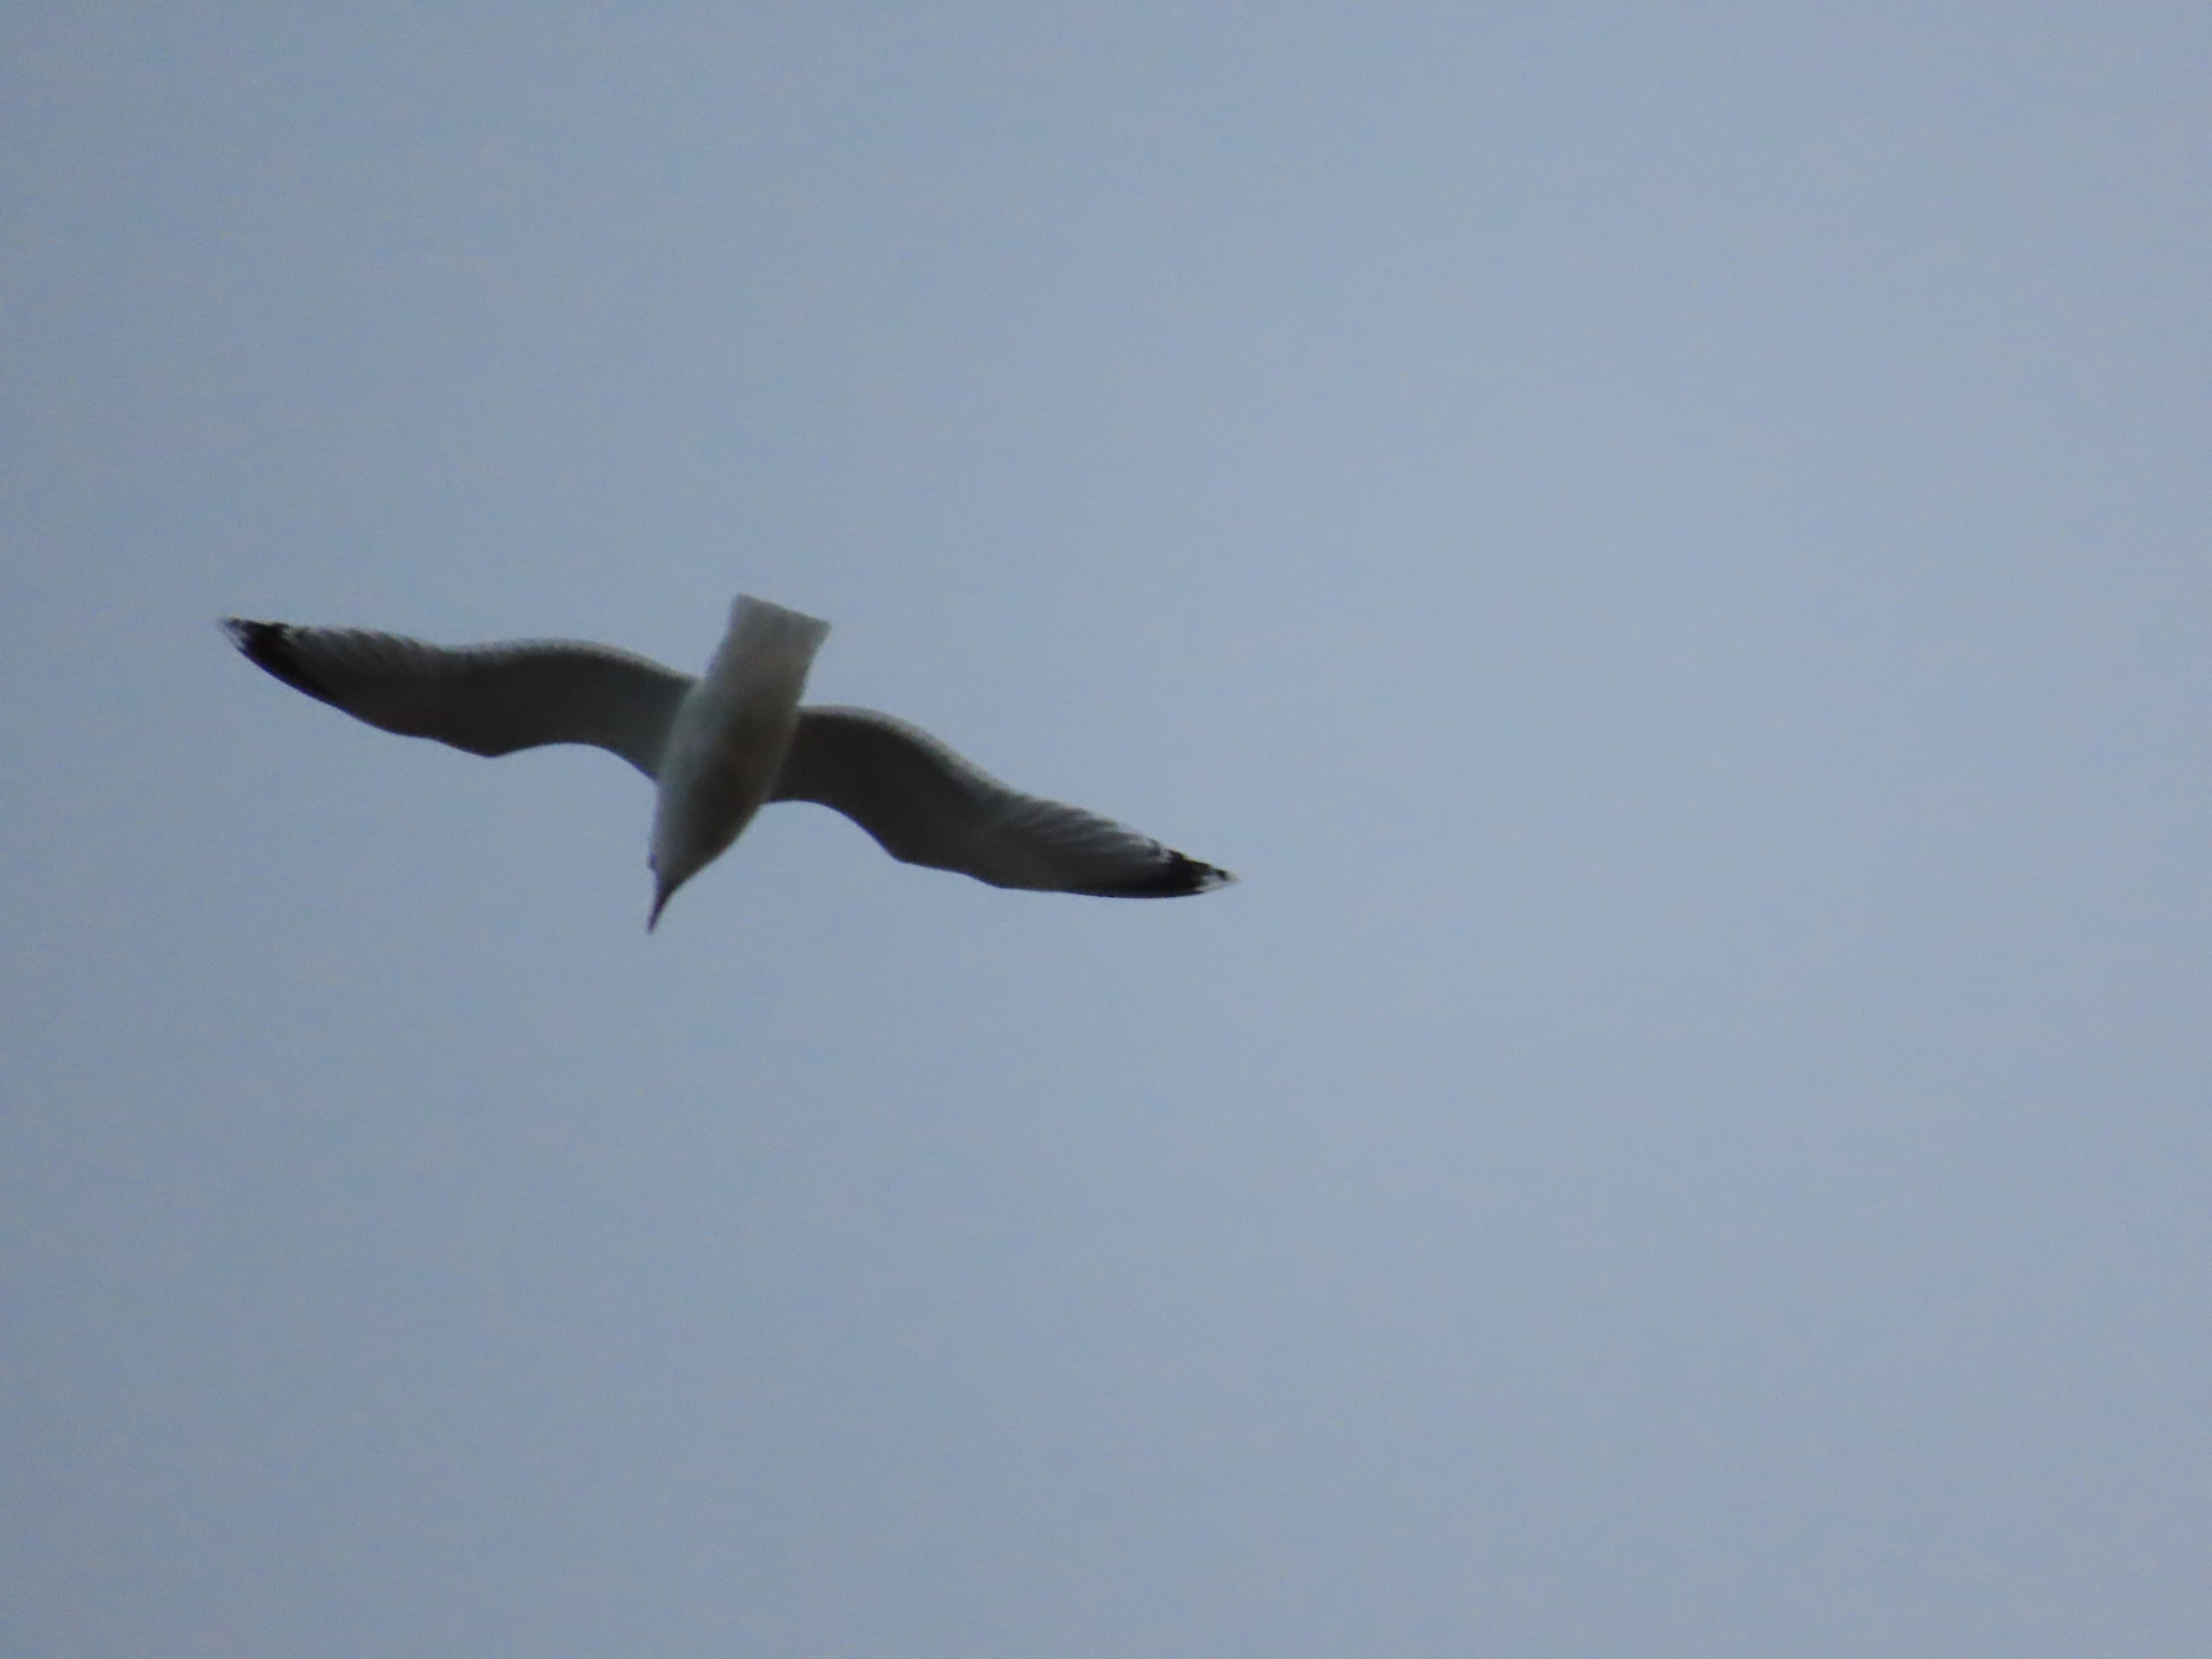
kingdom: Animalia
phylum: Chordata
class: Aves
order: Charadriiformes
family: Laridae
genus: Larus
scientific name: Larus argentatus
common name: Sølvmåge
